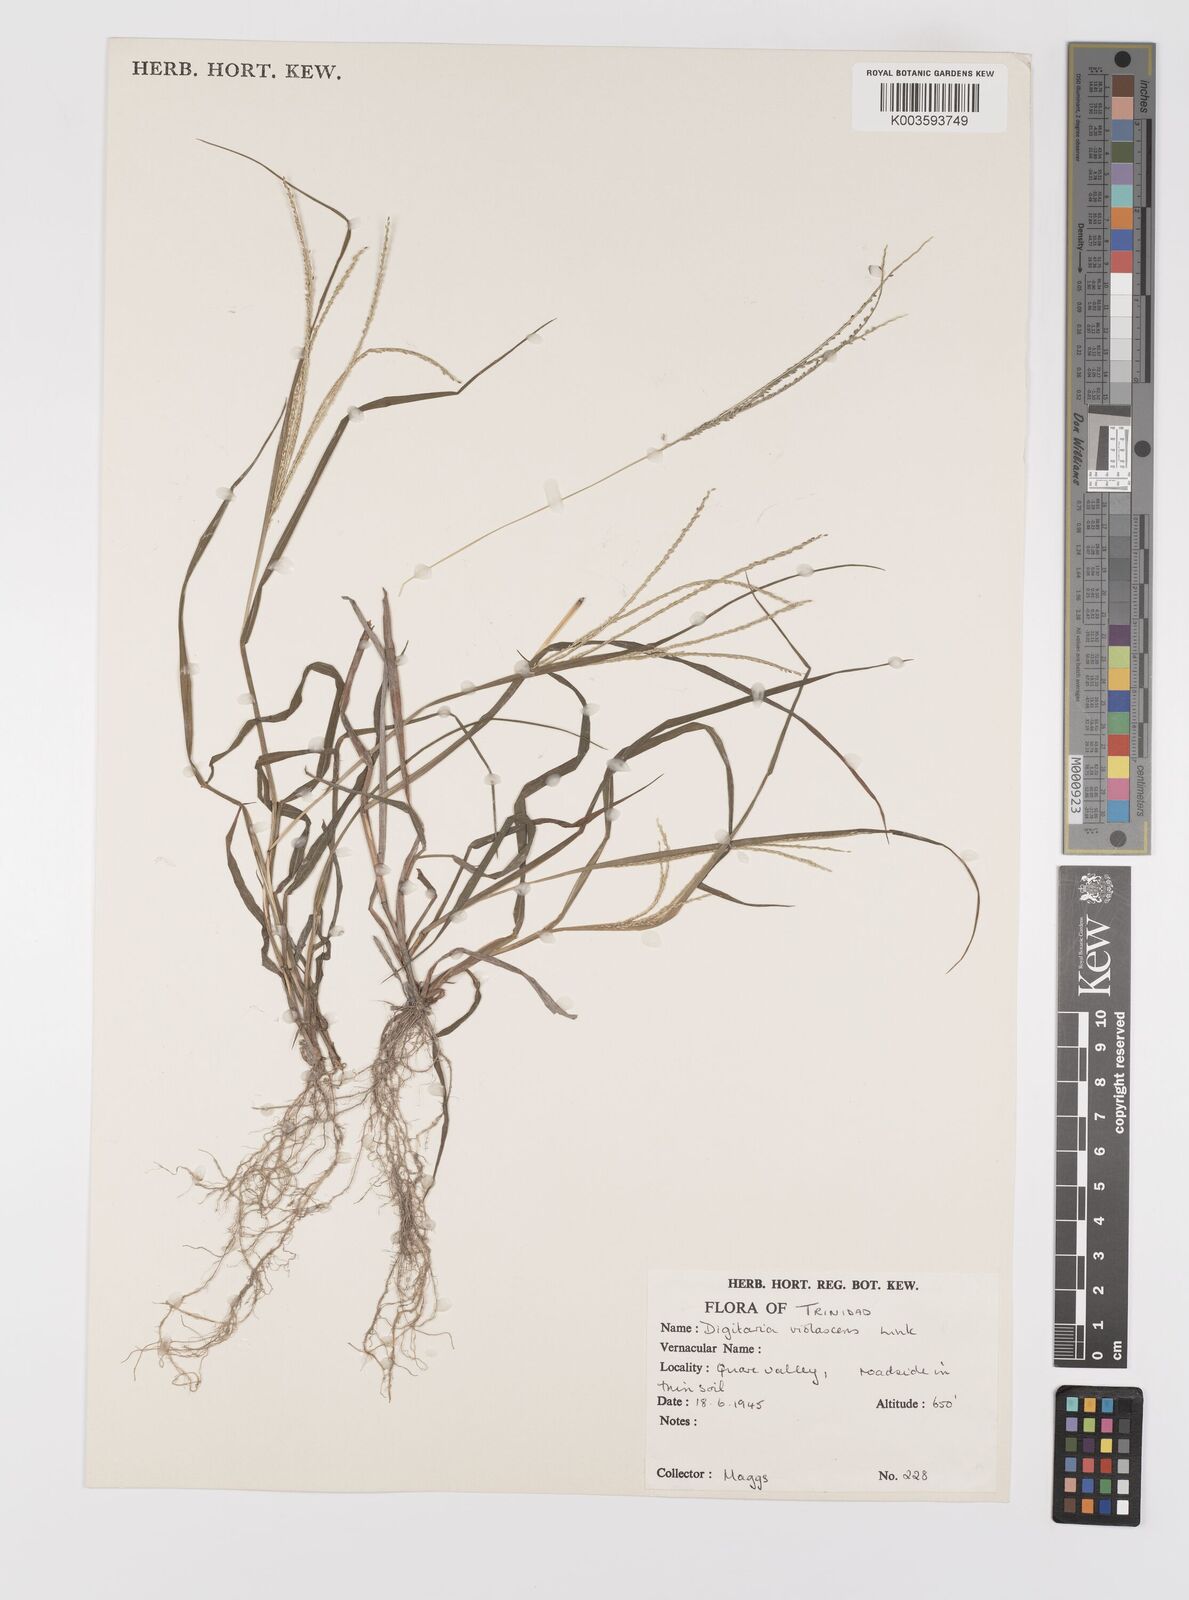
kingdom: Plantae
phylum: Tracheophyta
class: Liliopsida
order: Poales
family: Poaceae
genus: Digitaria
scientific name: Digitaria violascens
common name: Violet crabgrass
